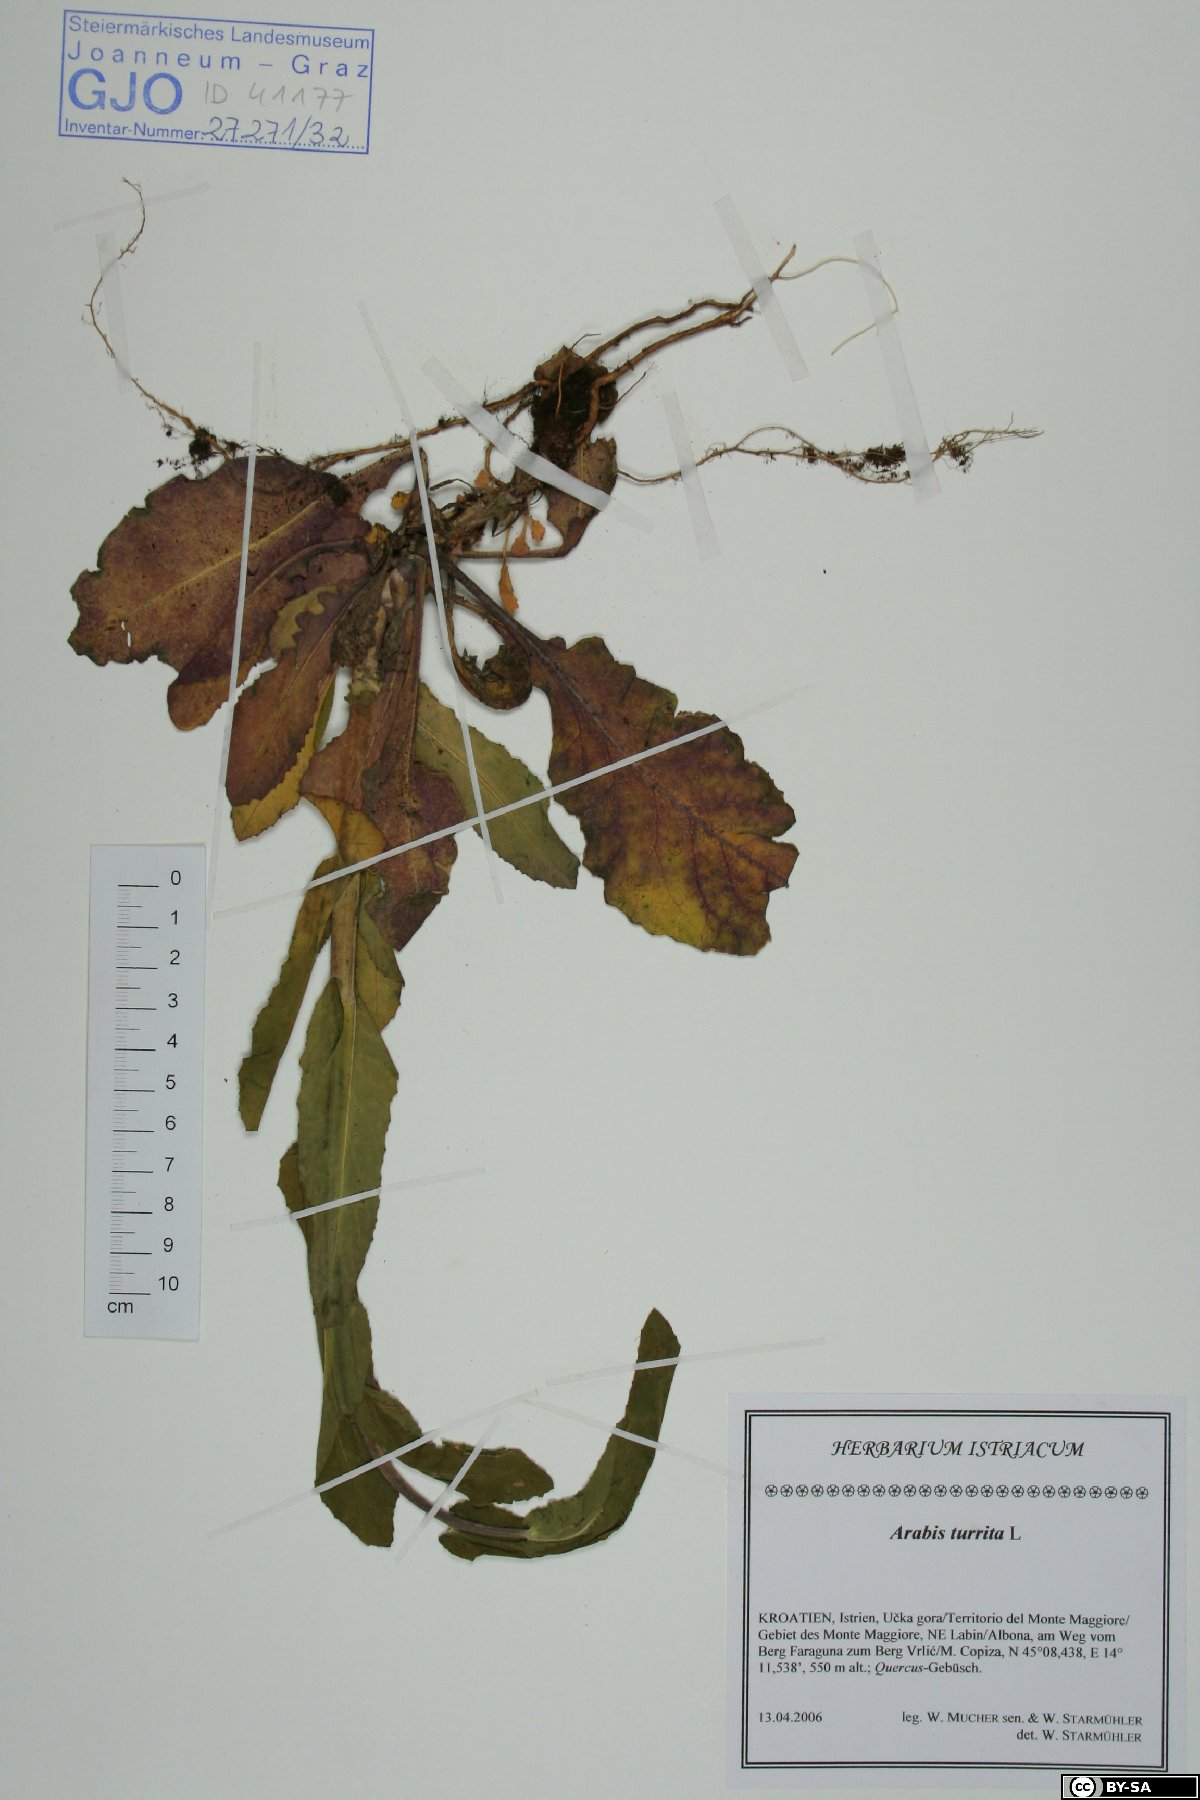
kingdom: Plantae
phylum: Tracheophyta
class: Magnoliopsida
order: Brassicales
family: Brassicaceae
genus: Pseudoturritis
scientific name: Pseudoturritis turrita
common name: Tower cress
